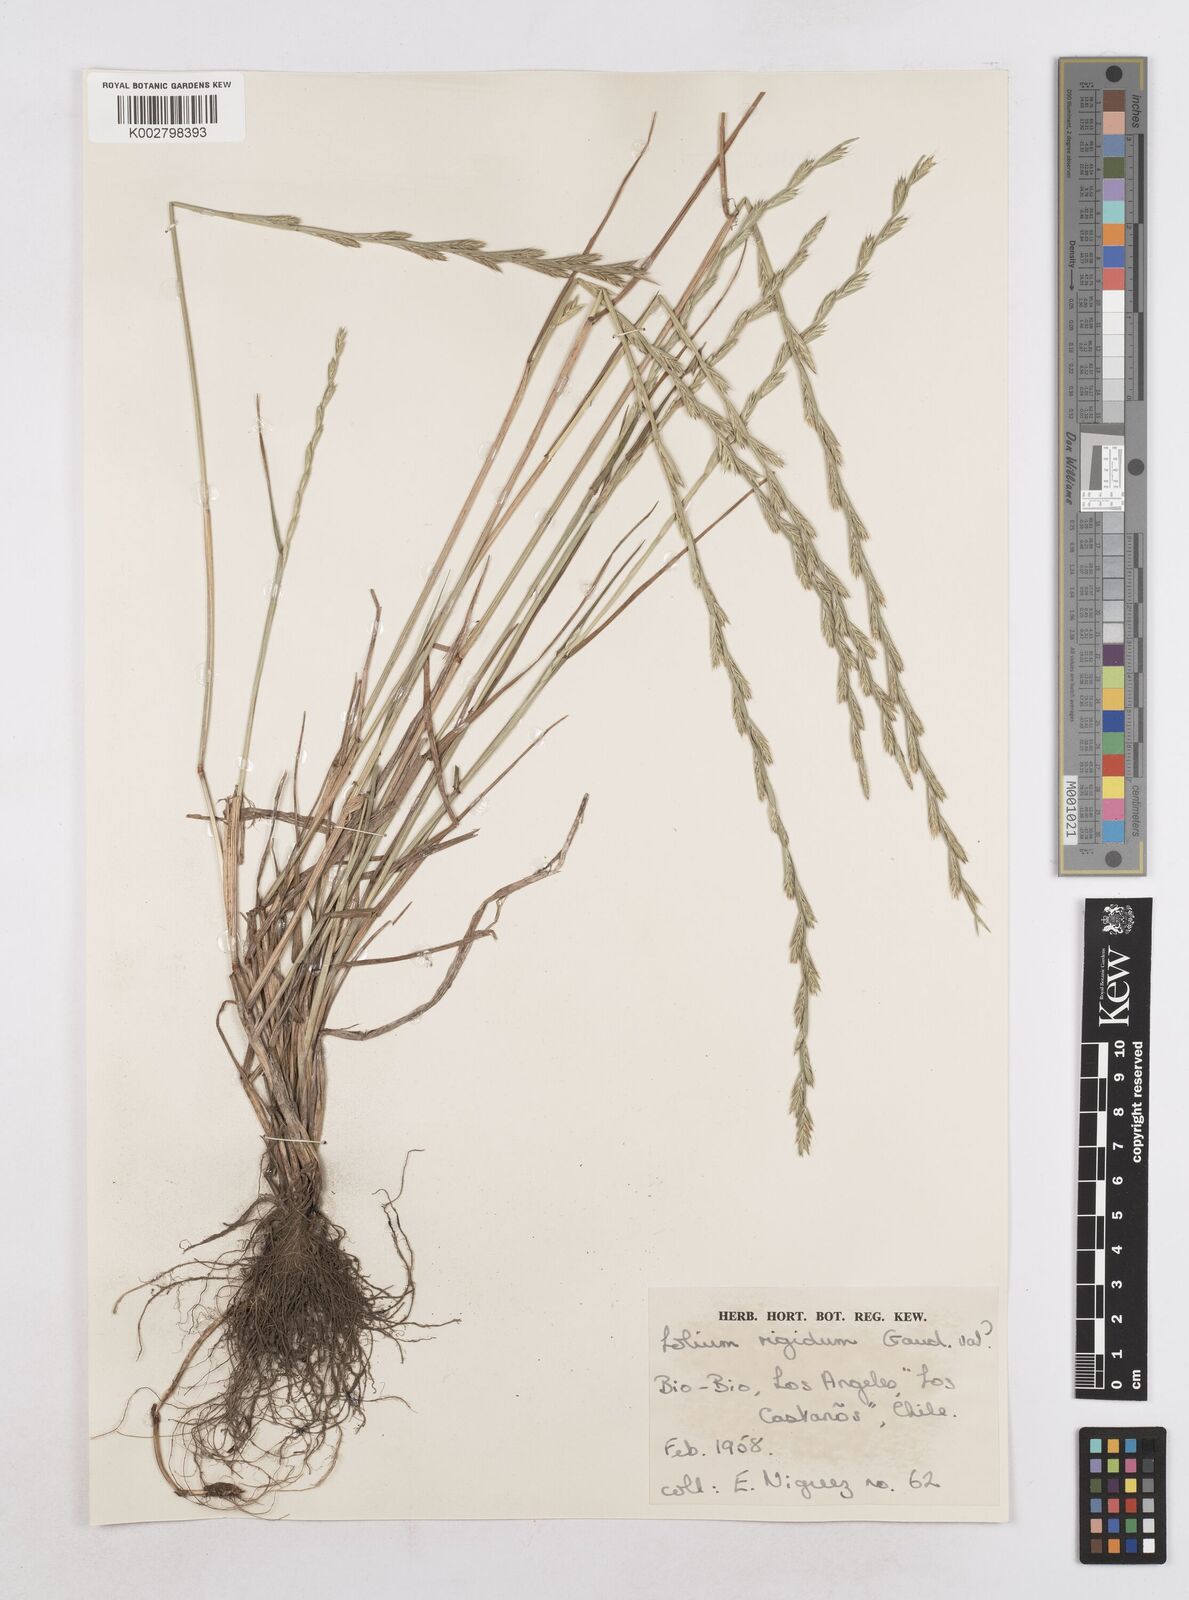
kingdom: Plantae
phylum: Tracheophyta
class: Liliopsida
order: Poales
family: Poaceae
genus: Lolium
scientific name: Lolium rigidum
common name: Wimmera ryegrass
